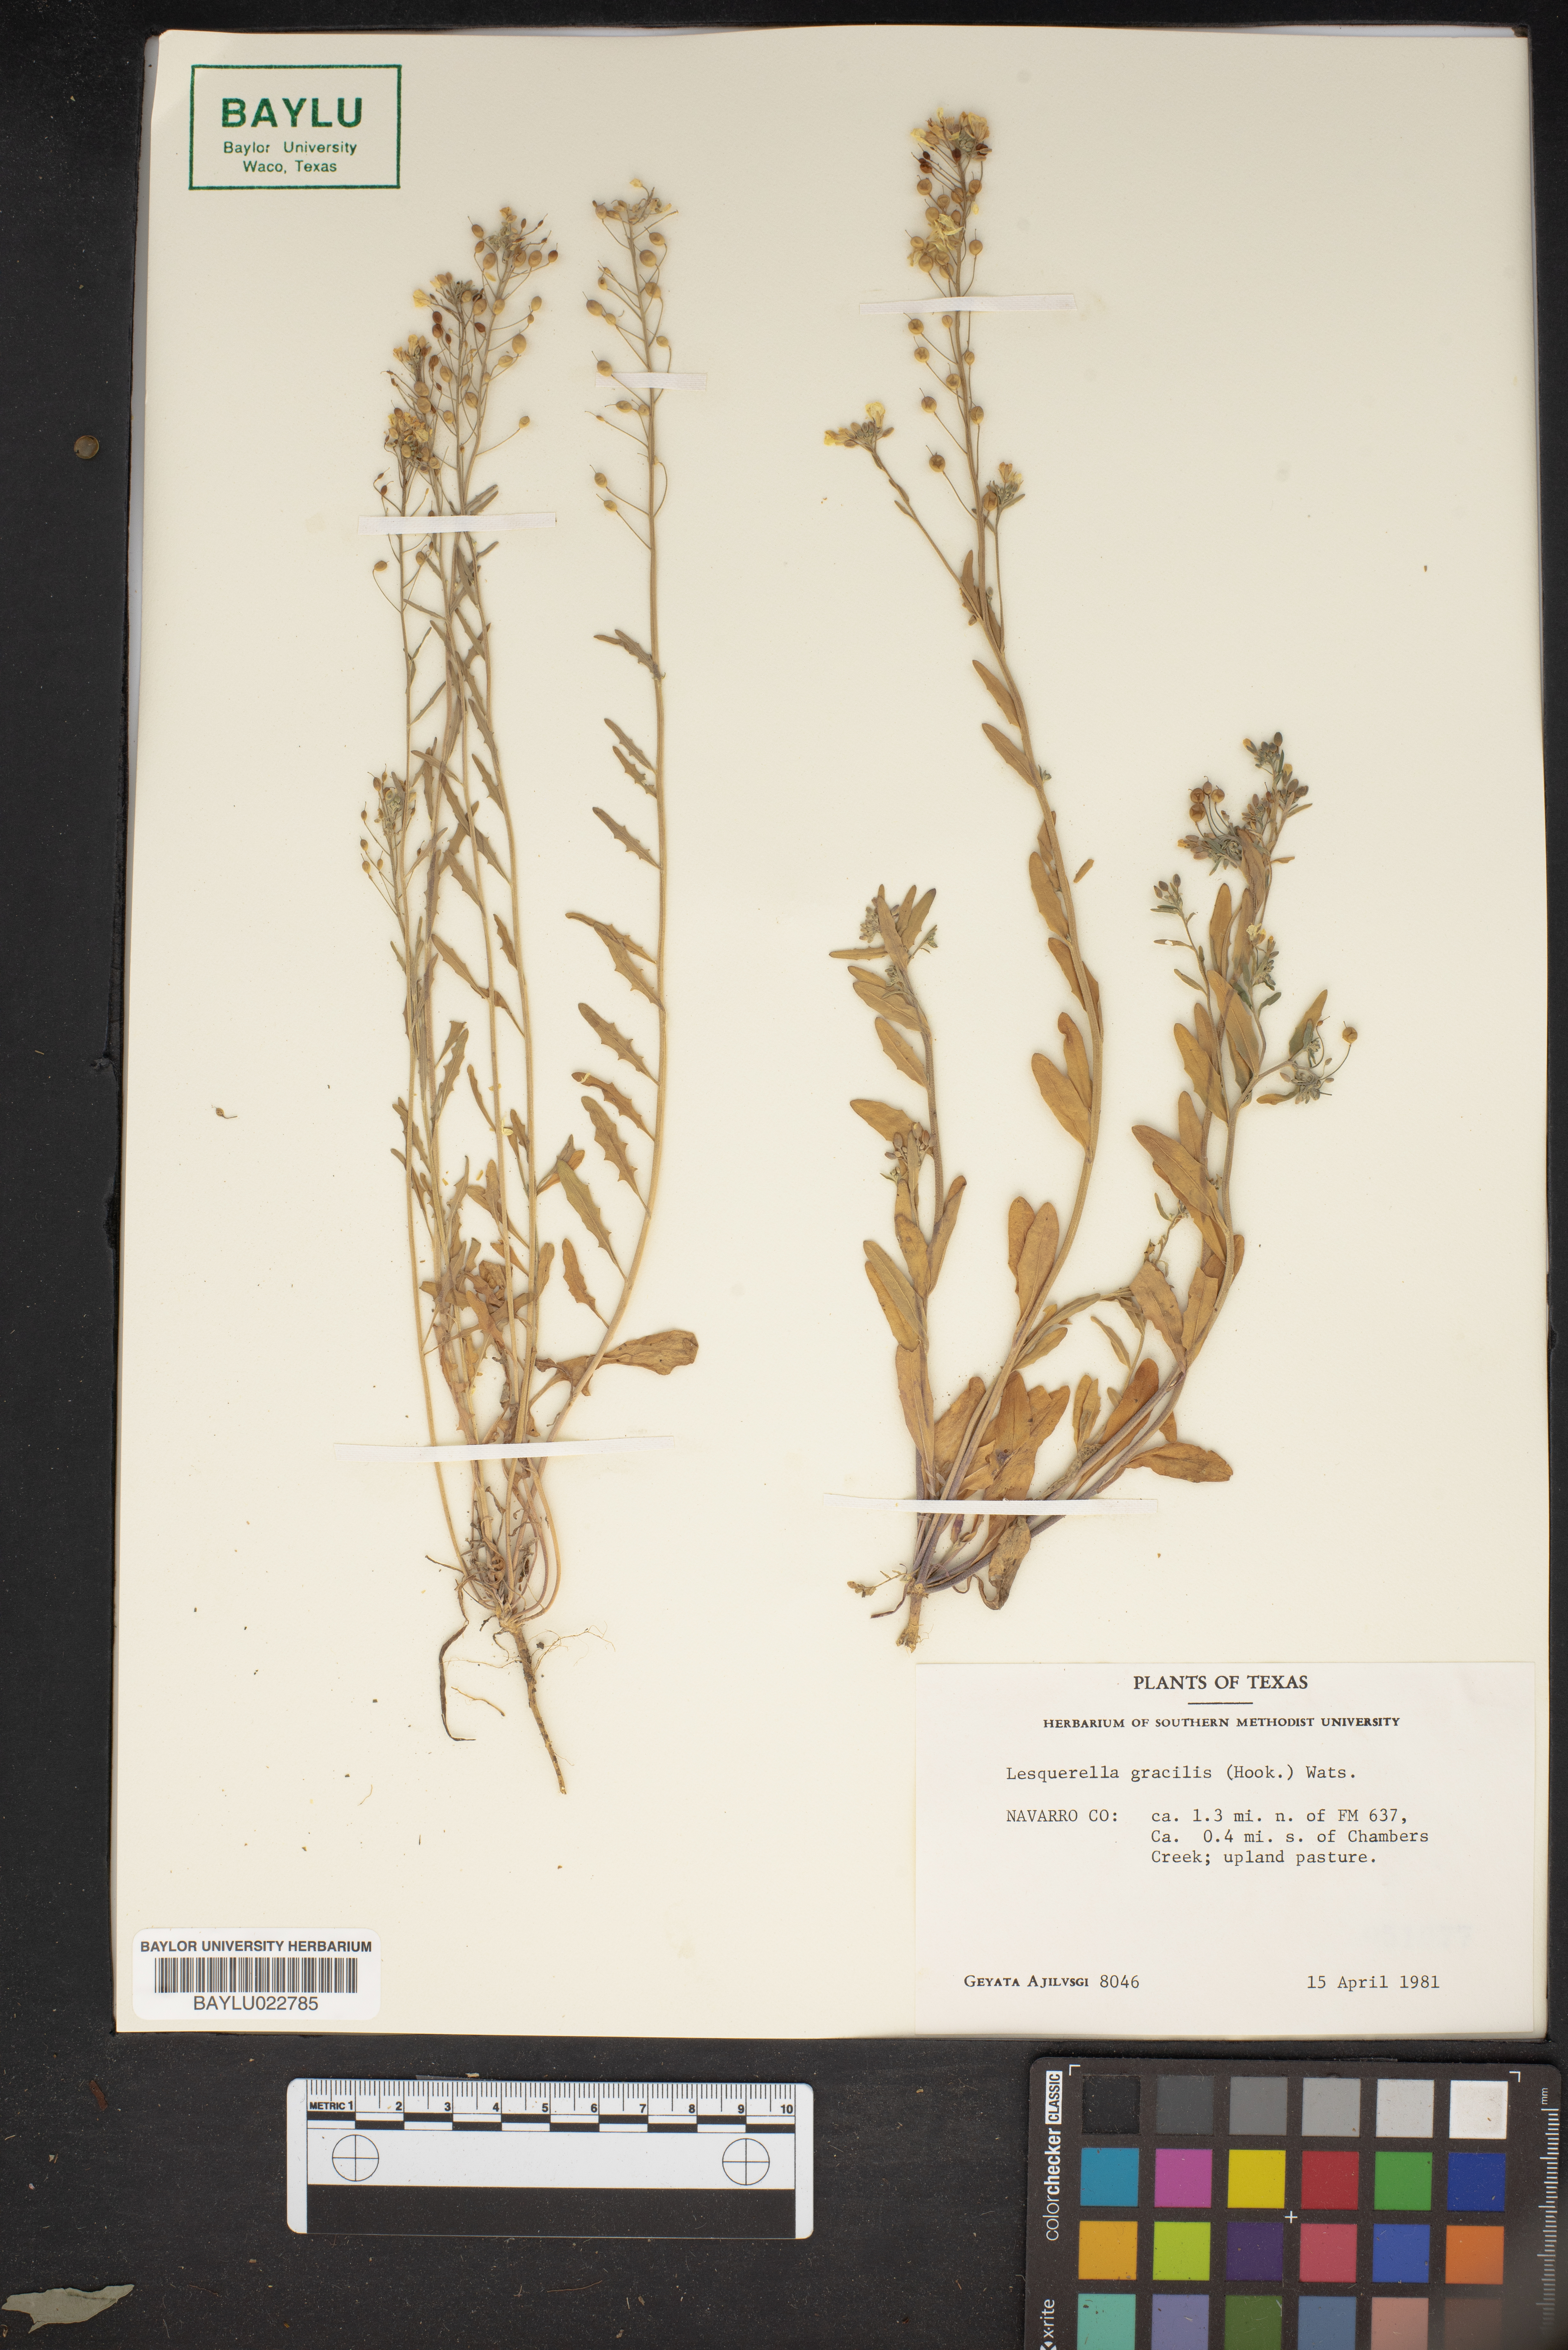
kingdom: Plantae
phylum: Tracheophyta
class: Magnoliopsida
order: Brassicales
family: Brassicaceae
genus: Physaria
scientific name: Physaria gracilis
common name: Spreading bladderpod
